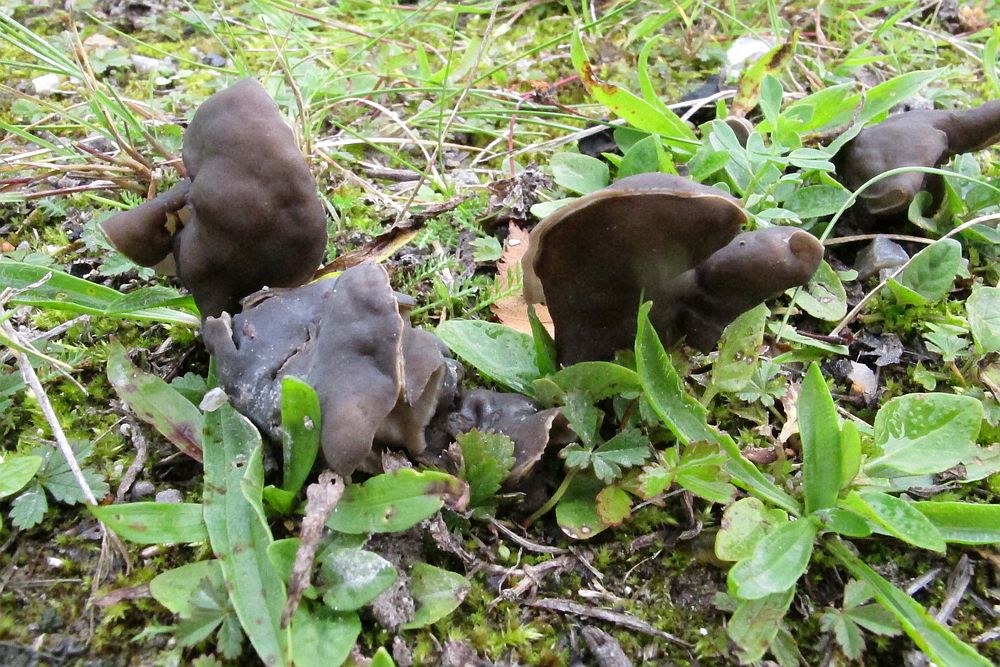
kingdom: Fungi
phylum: Ascomycota
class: Pezizomycetes
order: Pezizales
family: Helvellaceae
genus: Helvella
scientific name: Helvella lacunosa
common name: grubet foldhat
